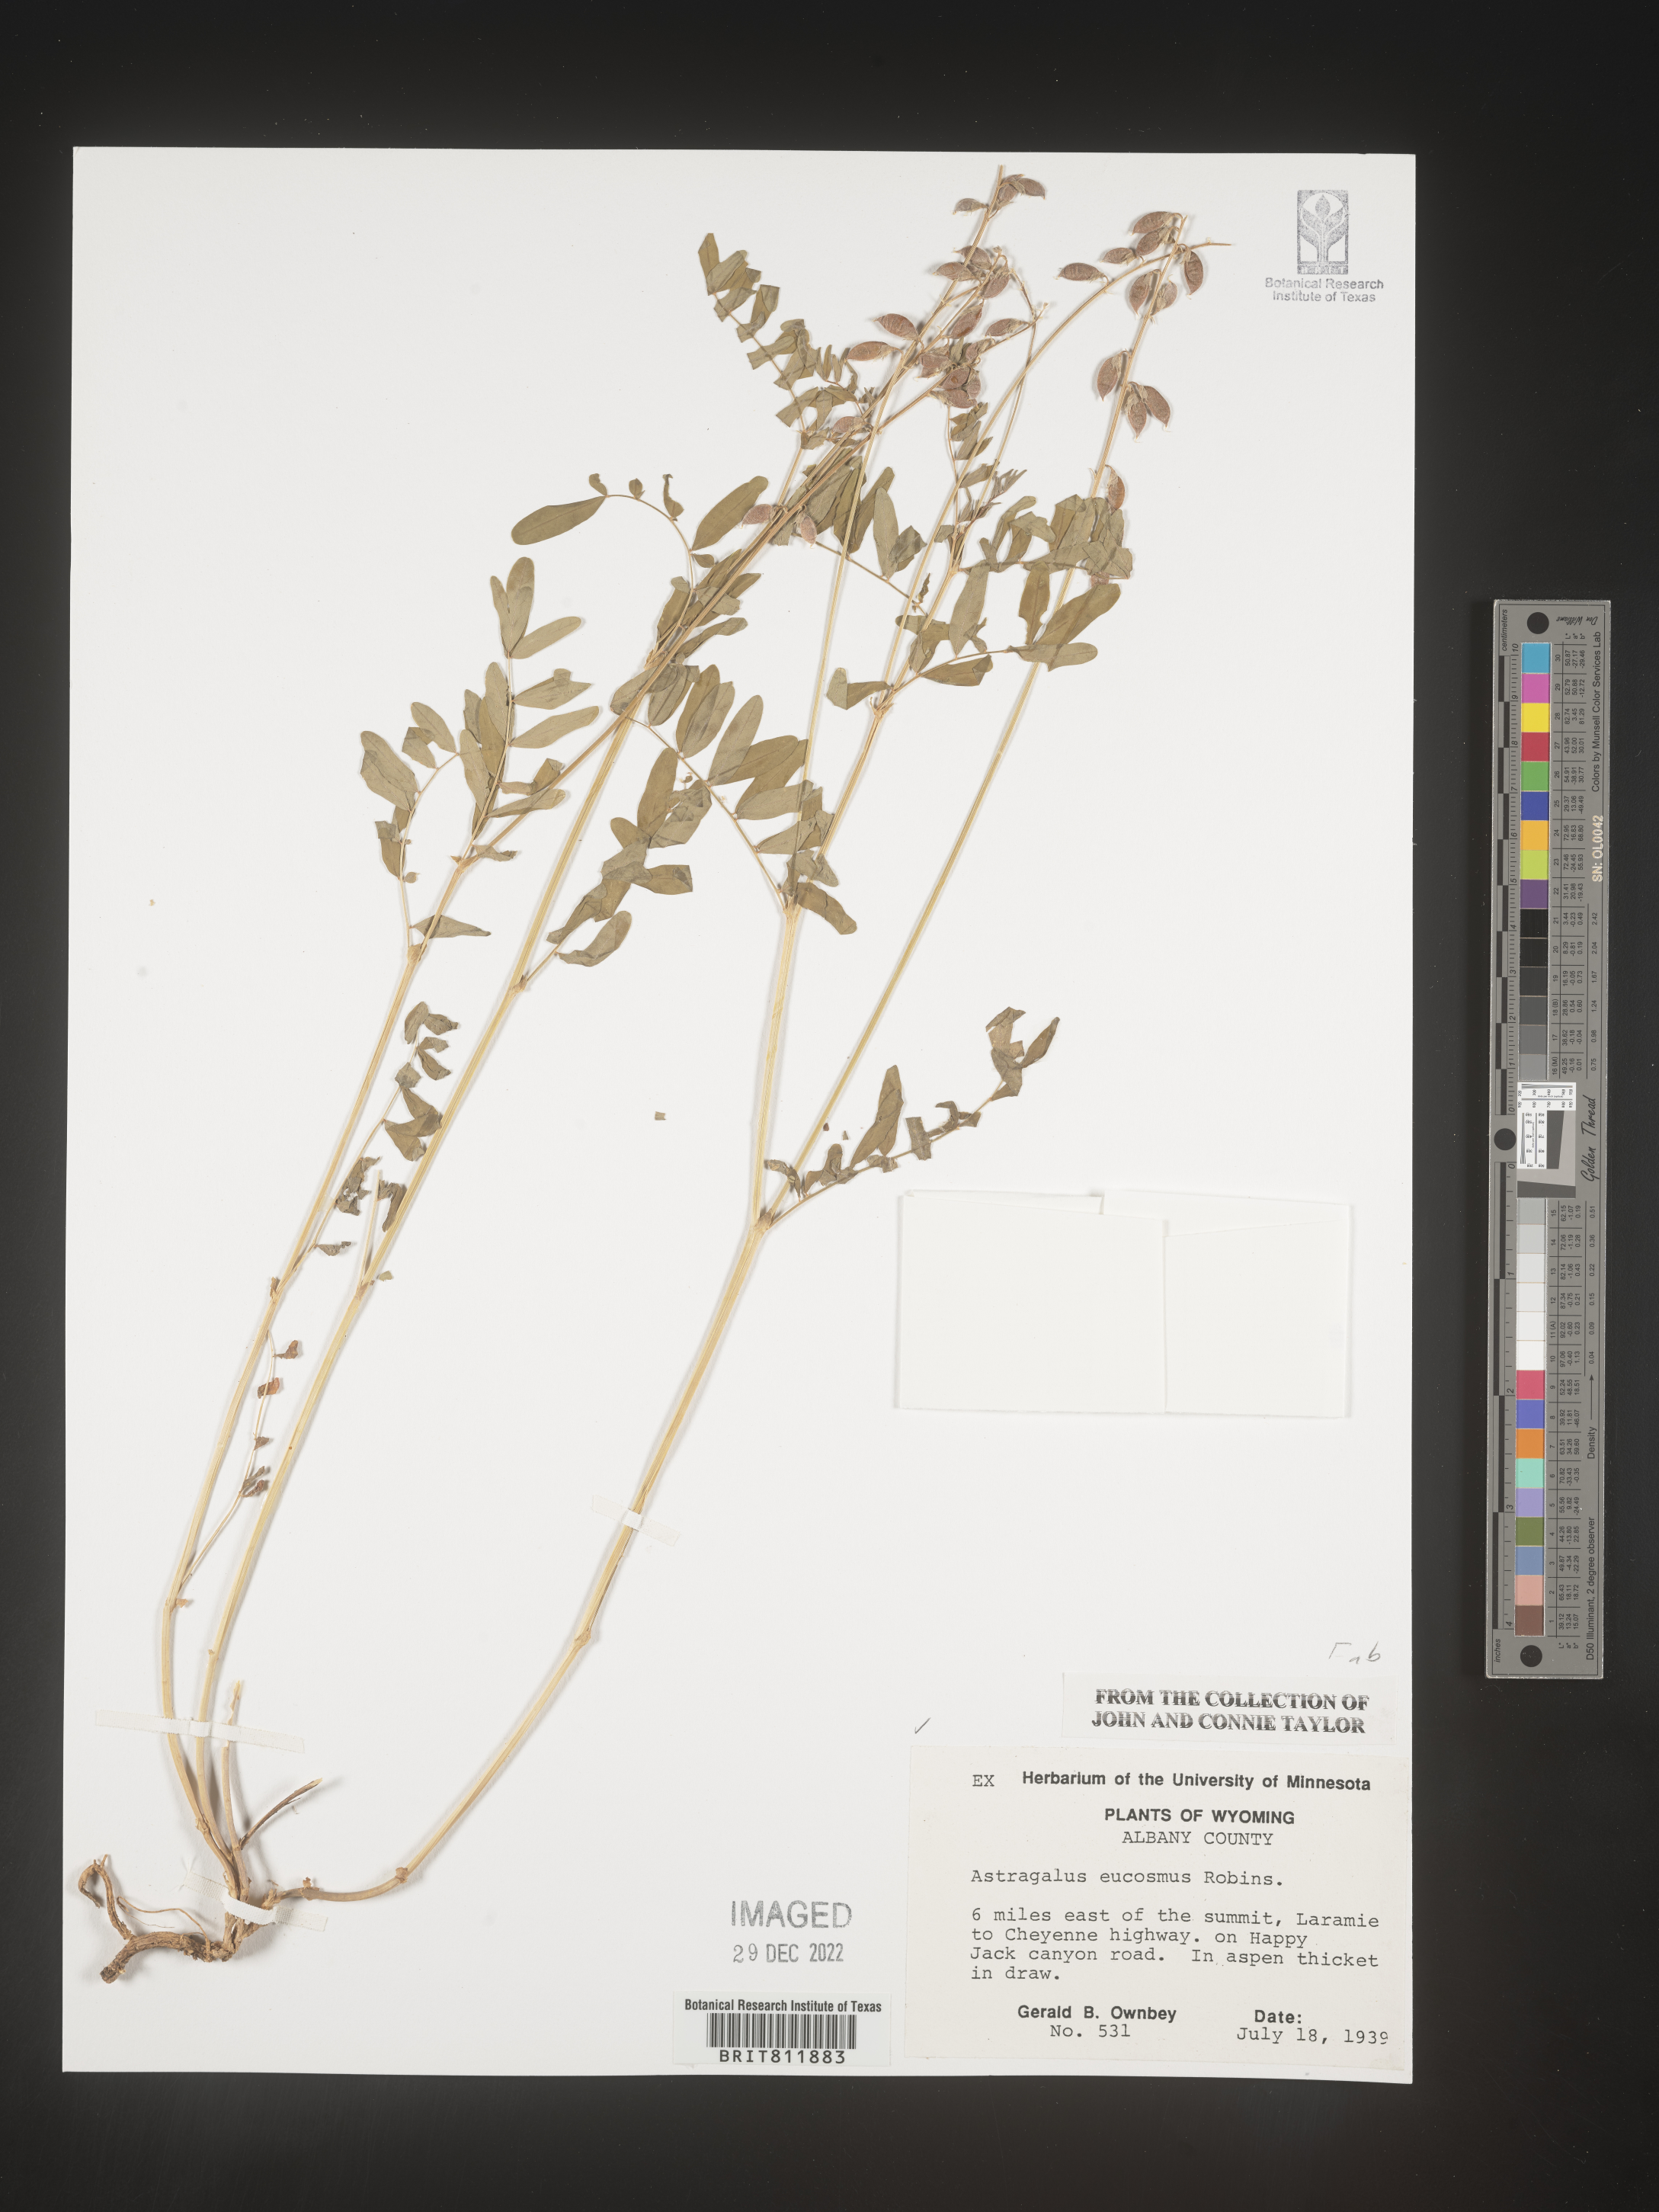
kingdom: Plantae
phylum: Tracheophyta
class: Magnoliopsida
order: Fabales
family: Fabaceae
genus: Astragalus
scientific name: Astragalus
